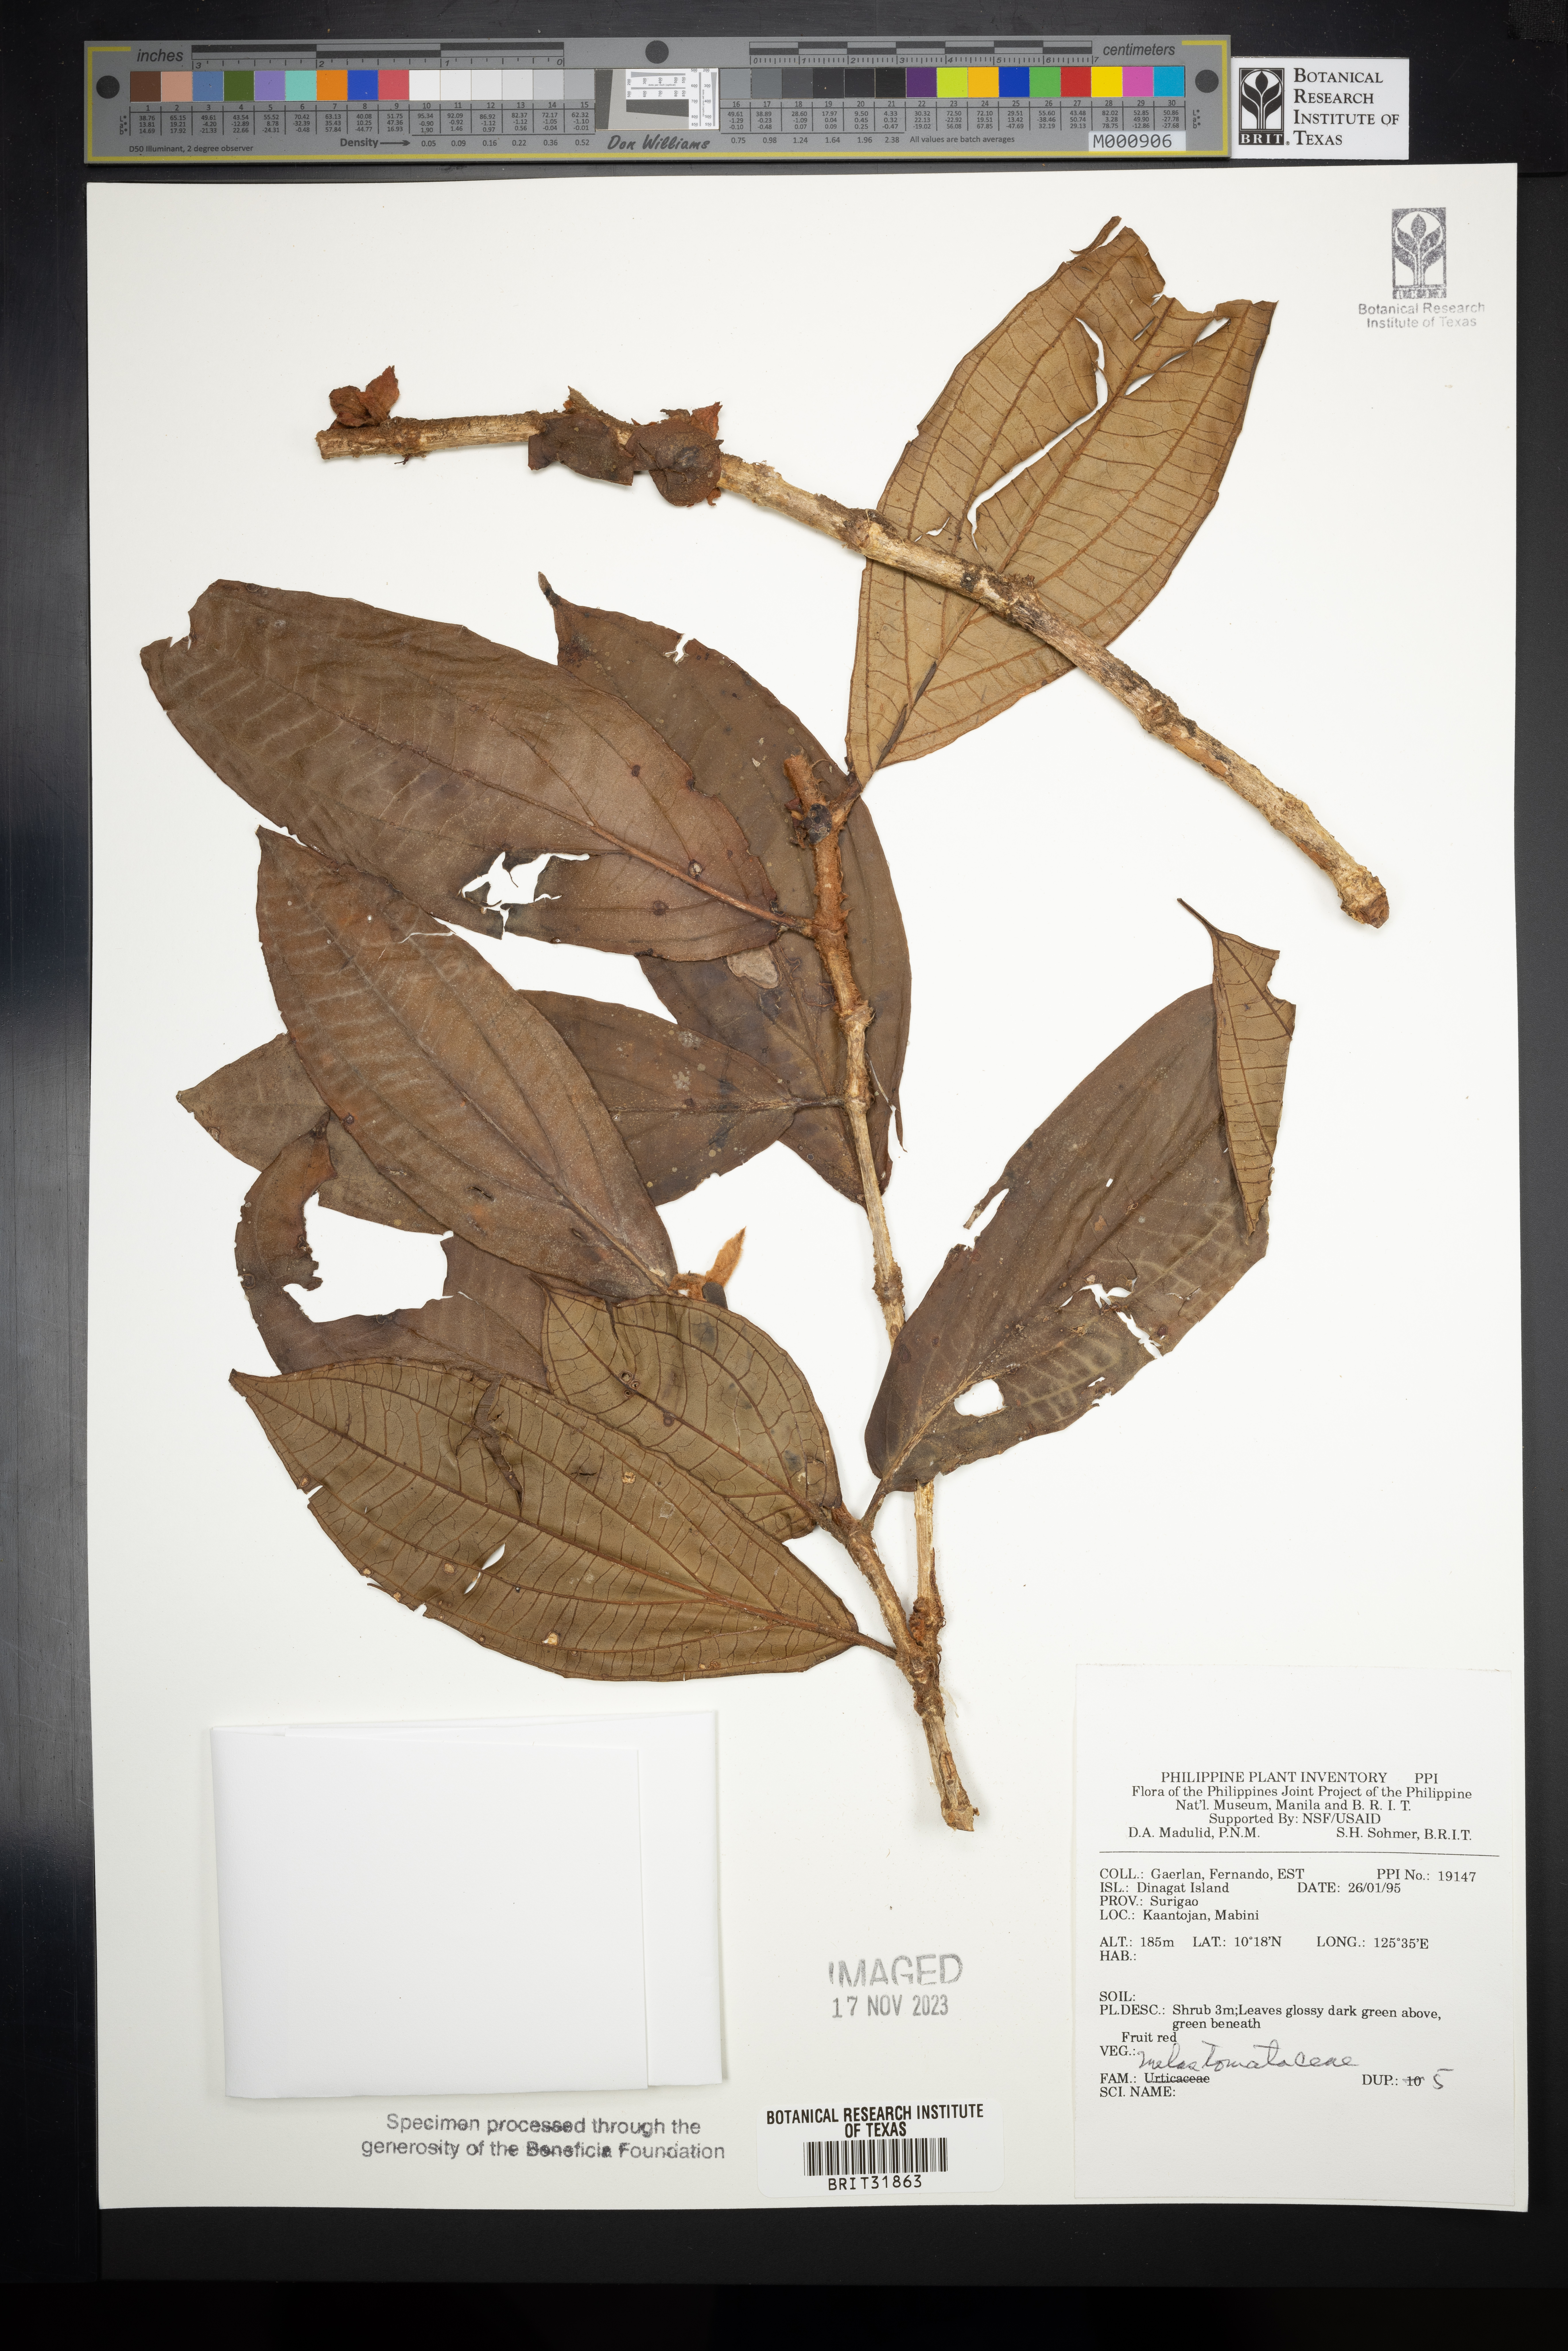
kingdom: Plantae
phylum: Tracheophyta
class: Magnoliopsida
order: Myrtales
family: Melastomataceae
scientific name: Melastomataceae
